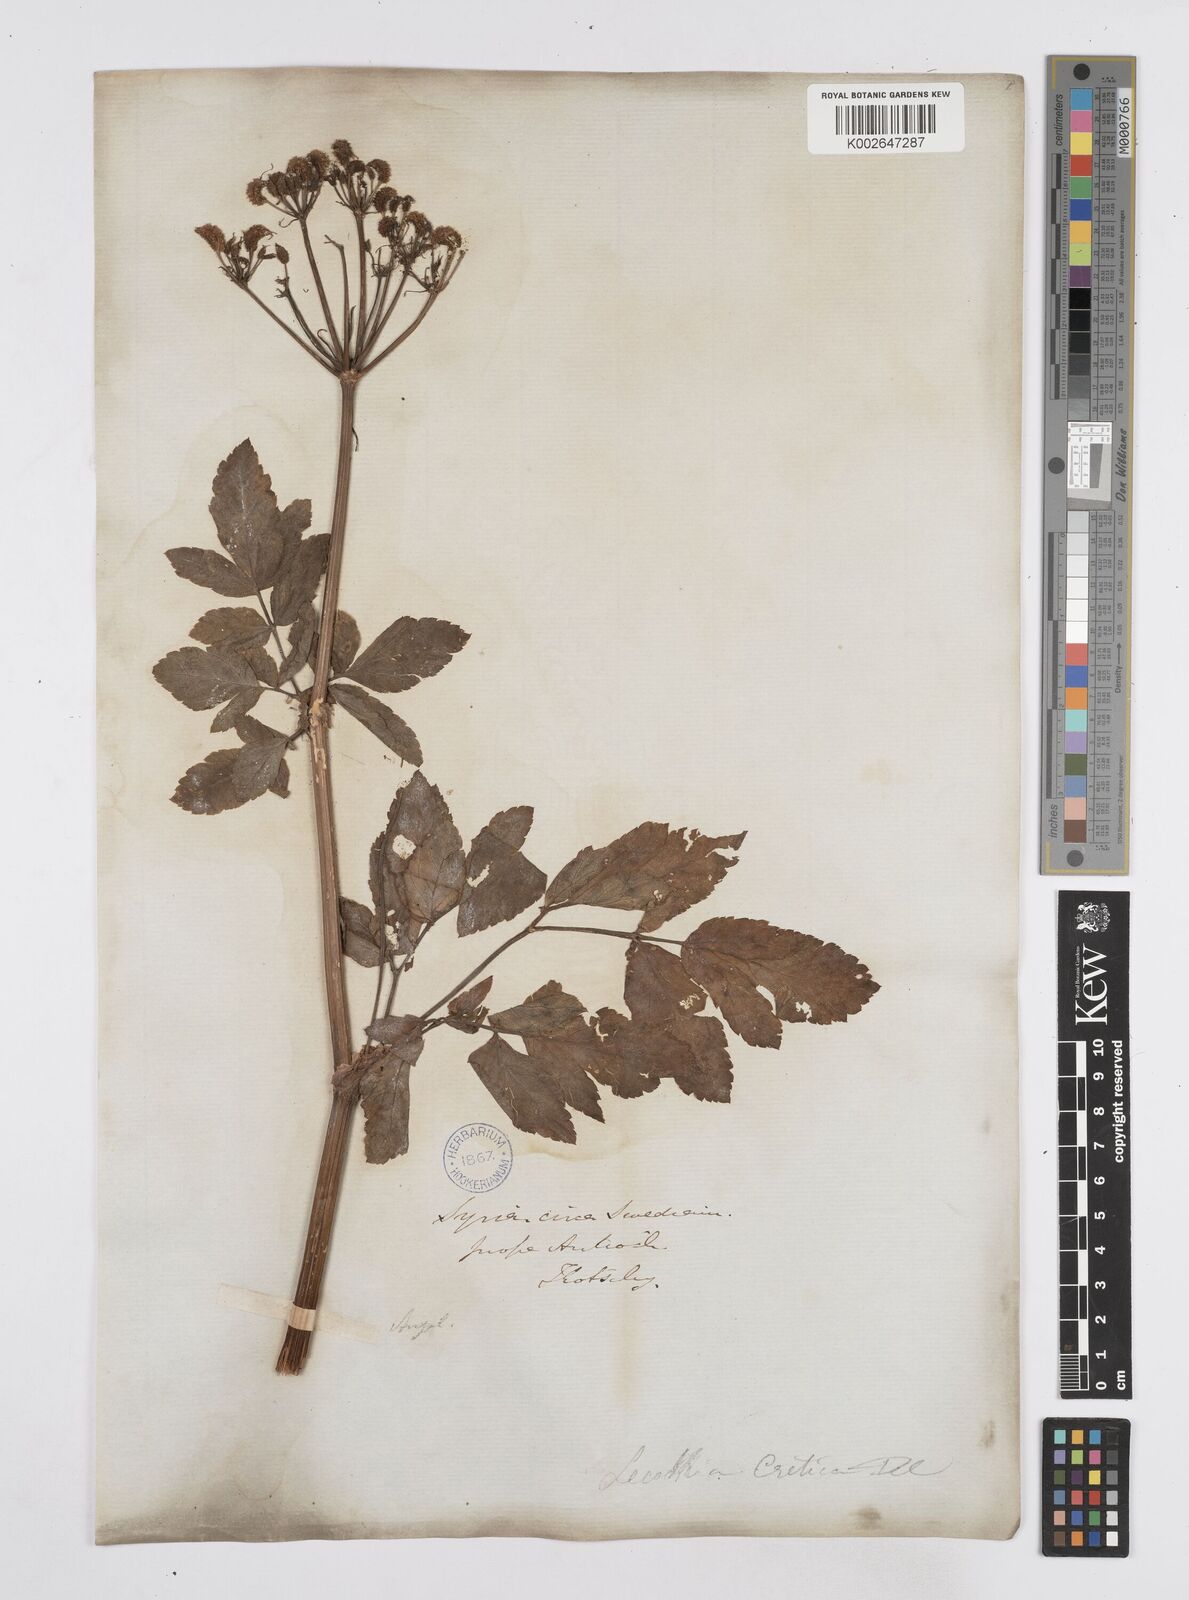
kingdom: Plantae
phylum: Tracheophyta
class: Magnoliopsida
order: Apiales
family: Apiaceae
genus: Lecokia
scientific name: Lecokia cretica
